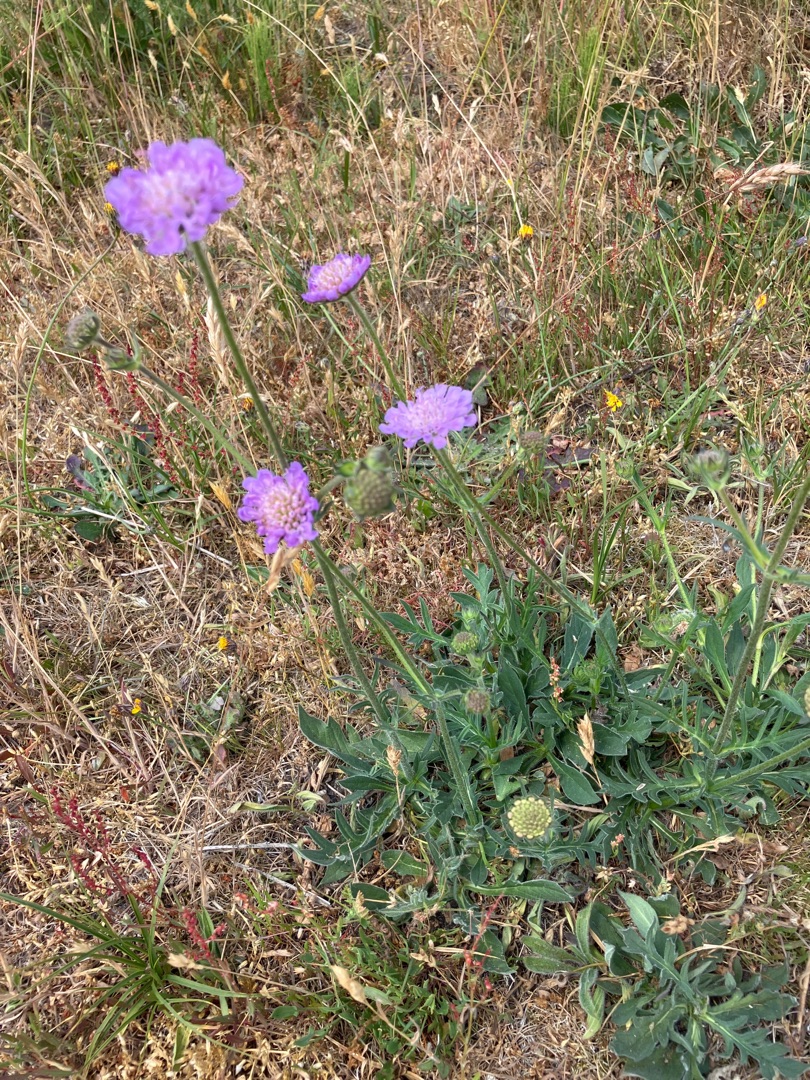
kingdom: Plantae
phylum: Tracheophyta
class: Magnoliopsida
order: Dipsacales
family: Caprifoliaceae
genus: Knautia
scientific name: Knautia arvensis
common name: Blåhat
